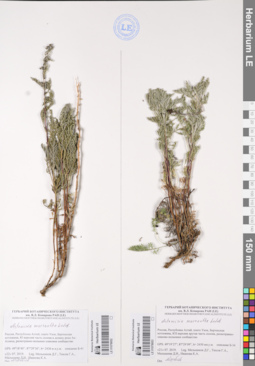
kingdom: Plantae
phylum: Tracheophyta
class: Magnoliopsida
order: Asterales
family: Asteraceae
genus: Artemisia
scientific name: Artemisia macrantha
